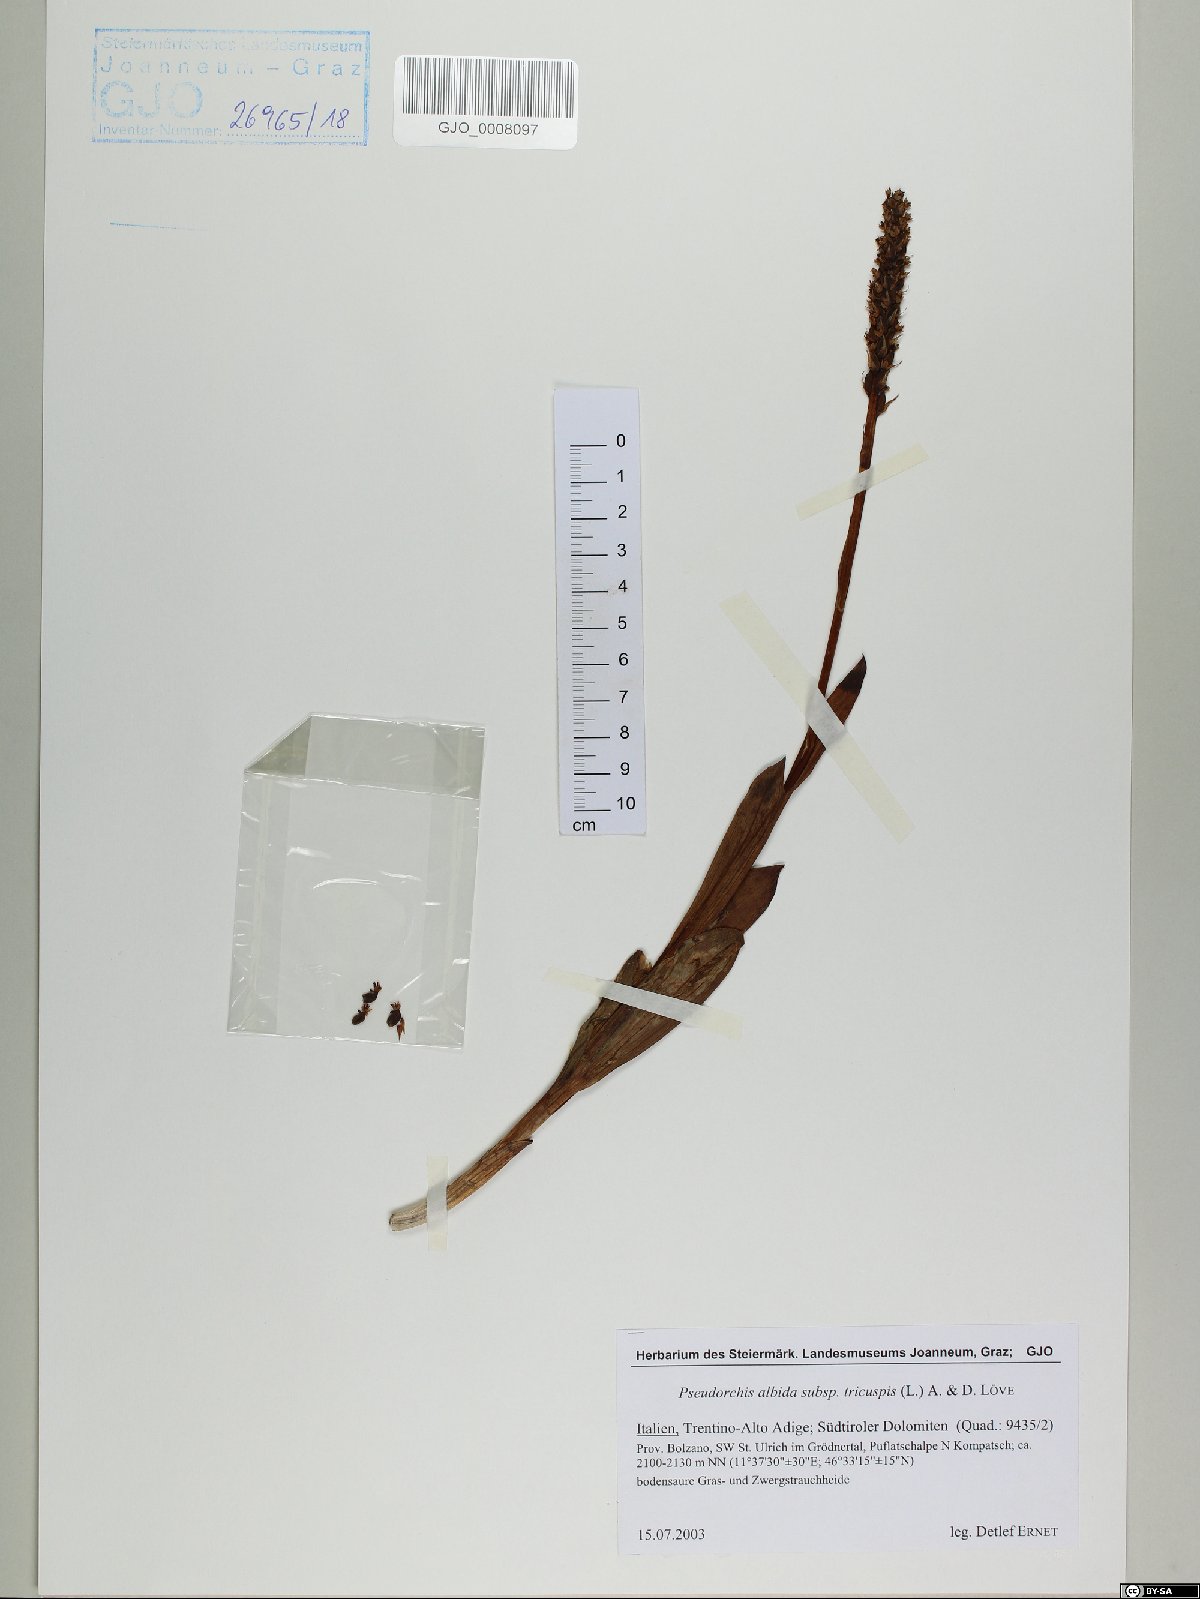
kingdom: Plantae
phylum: Tracheophyta
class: Liliopsida
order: Asparagales
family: Orchidaceae
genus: Pseudorchis
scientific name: Pseudorchis albida
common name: Small-white orchid
